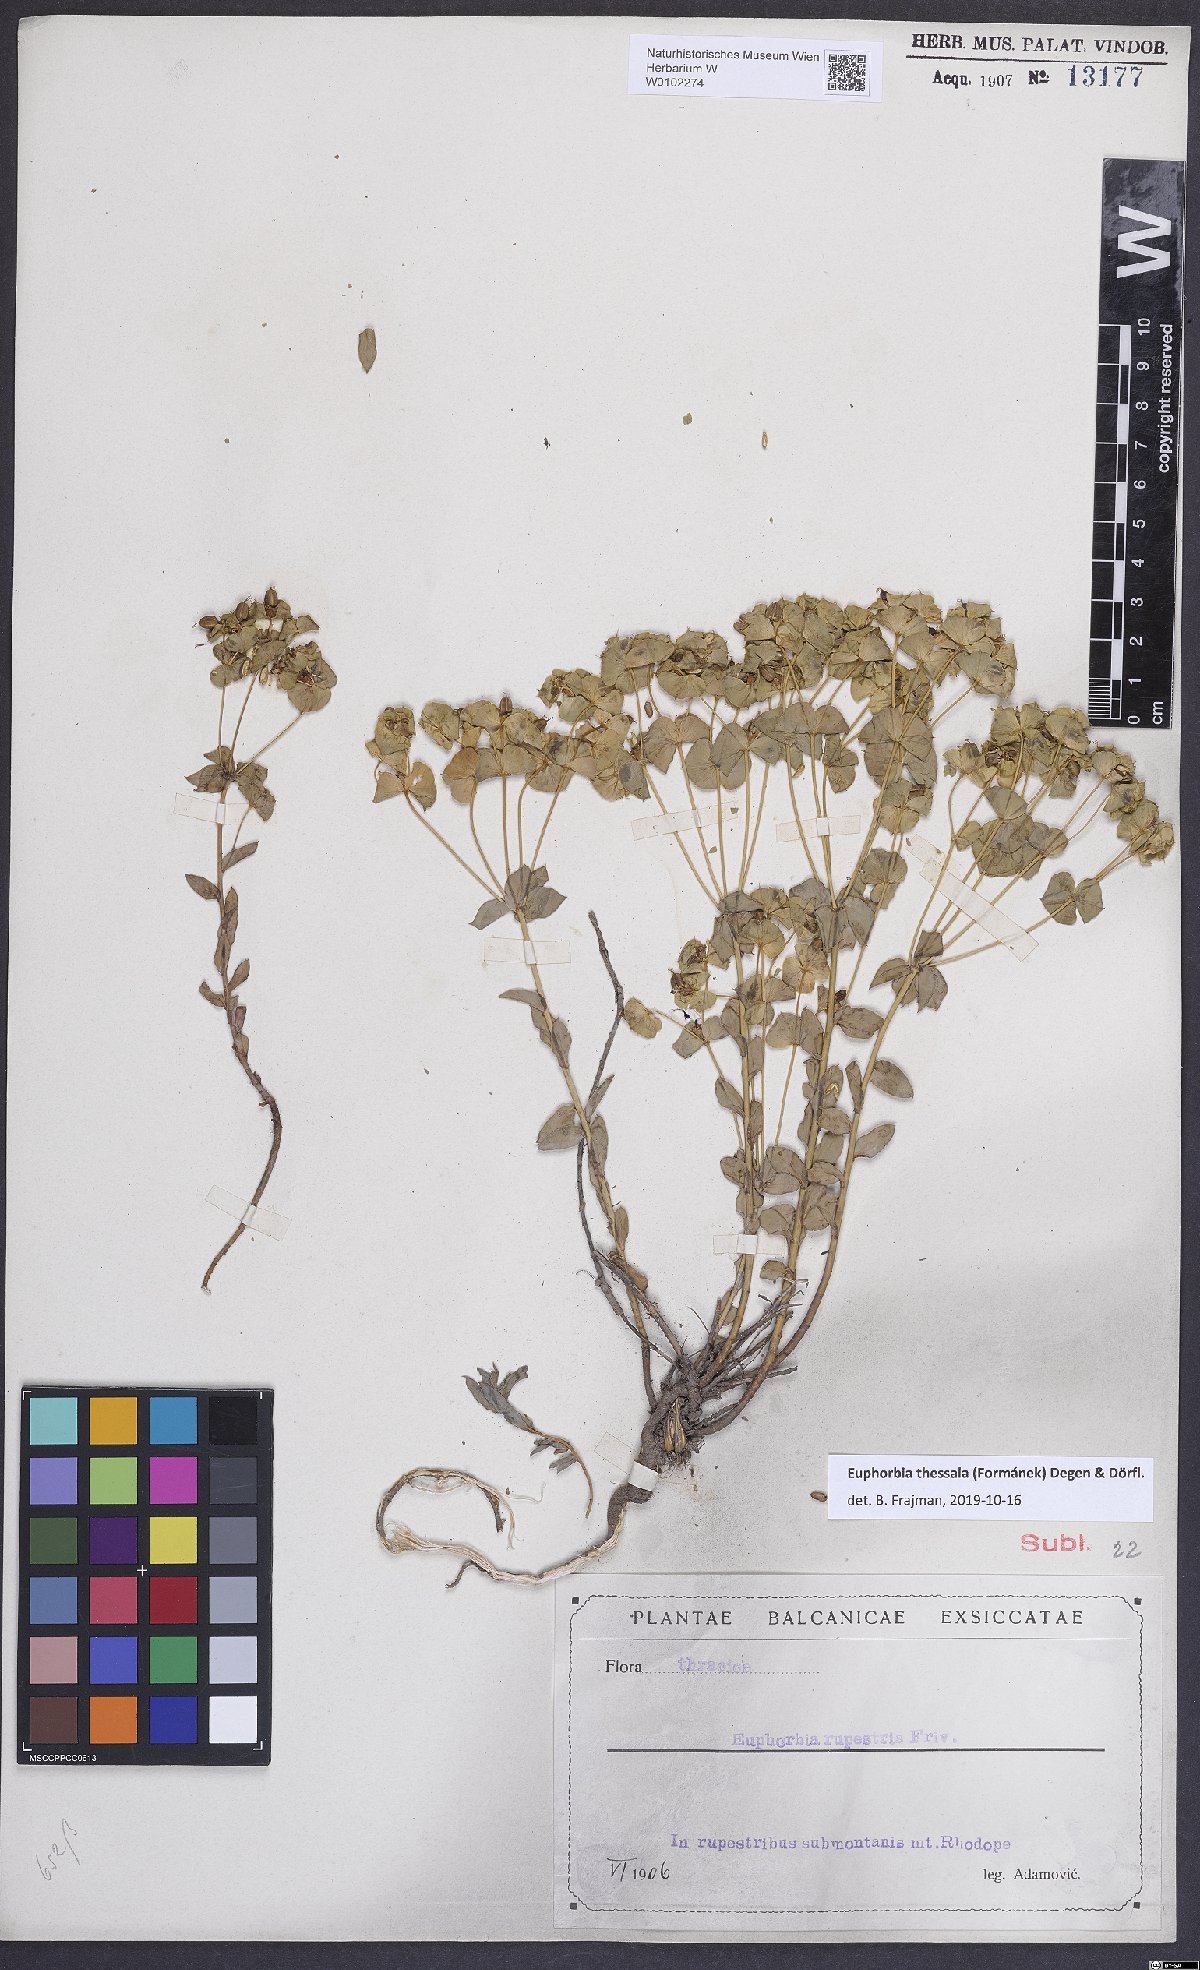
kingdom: Plantae
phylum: Tracheophyta
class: Magnoliopsida
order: Malpighiales
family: Euphorbiaceae
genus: Euphorbia
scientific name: Euphorbia barrelieri
